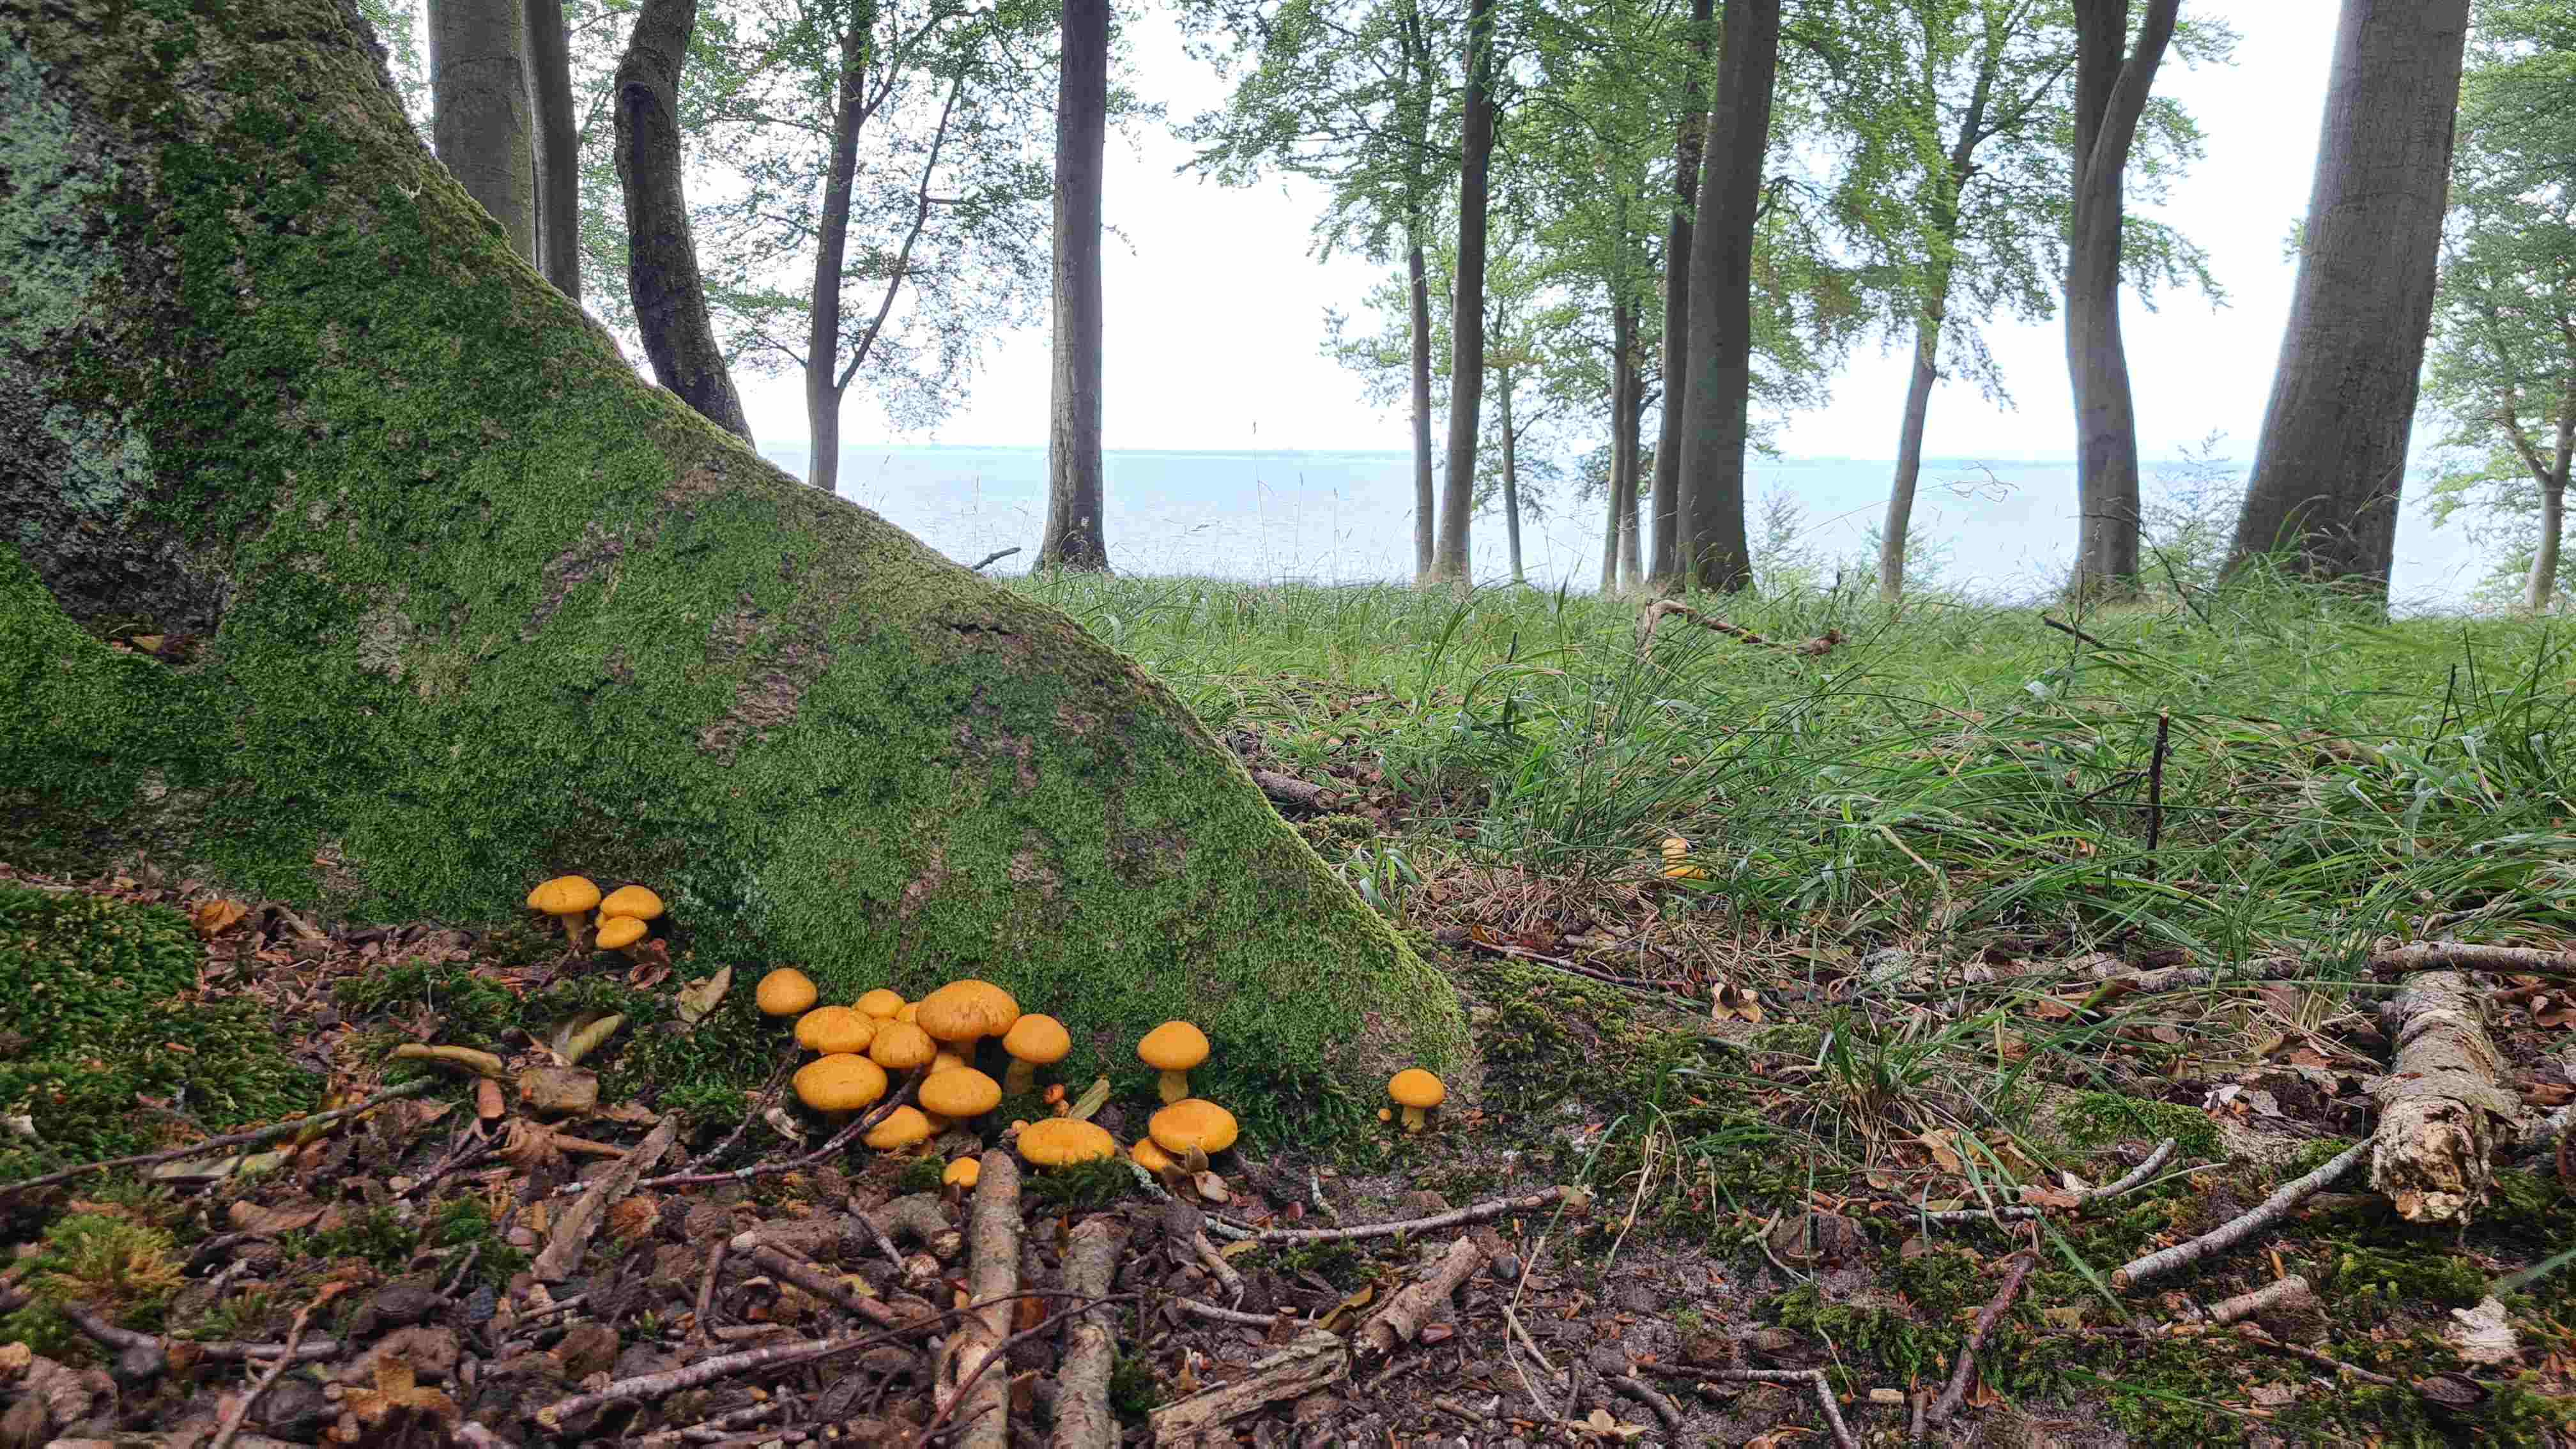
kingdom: Fungi
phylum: Basidiomycota
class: Agaricomycetes
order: Agaricales
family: Hymenogastraceae
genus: Gymnopilus
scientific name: Gymnopilus spectabilis
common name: fibret flammehat
